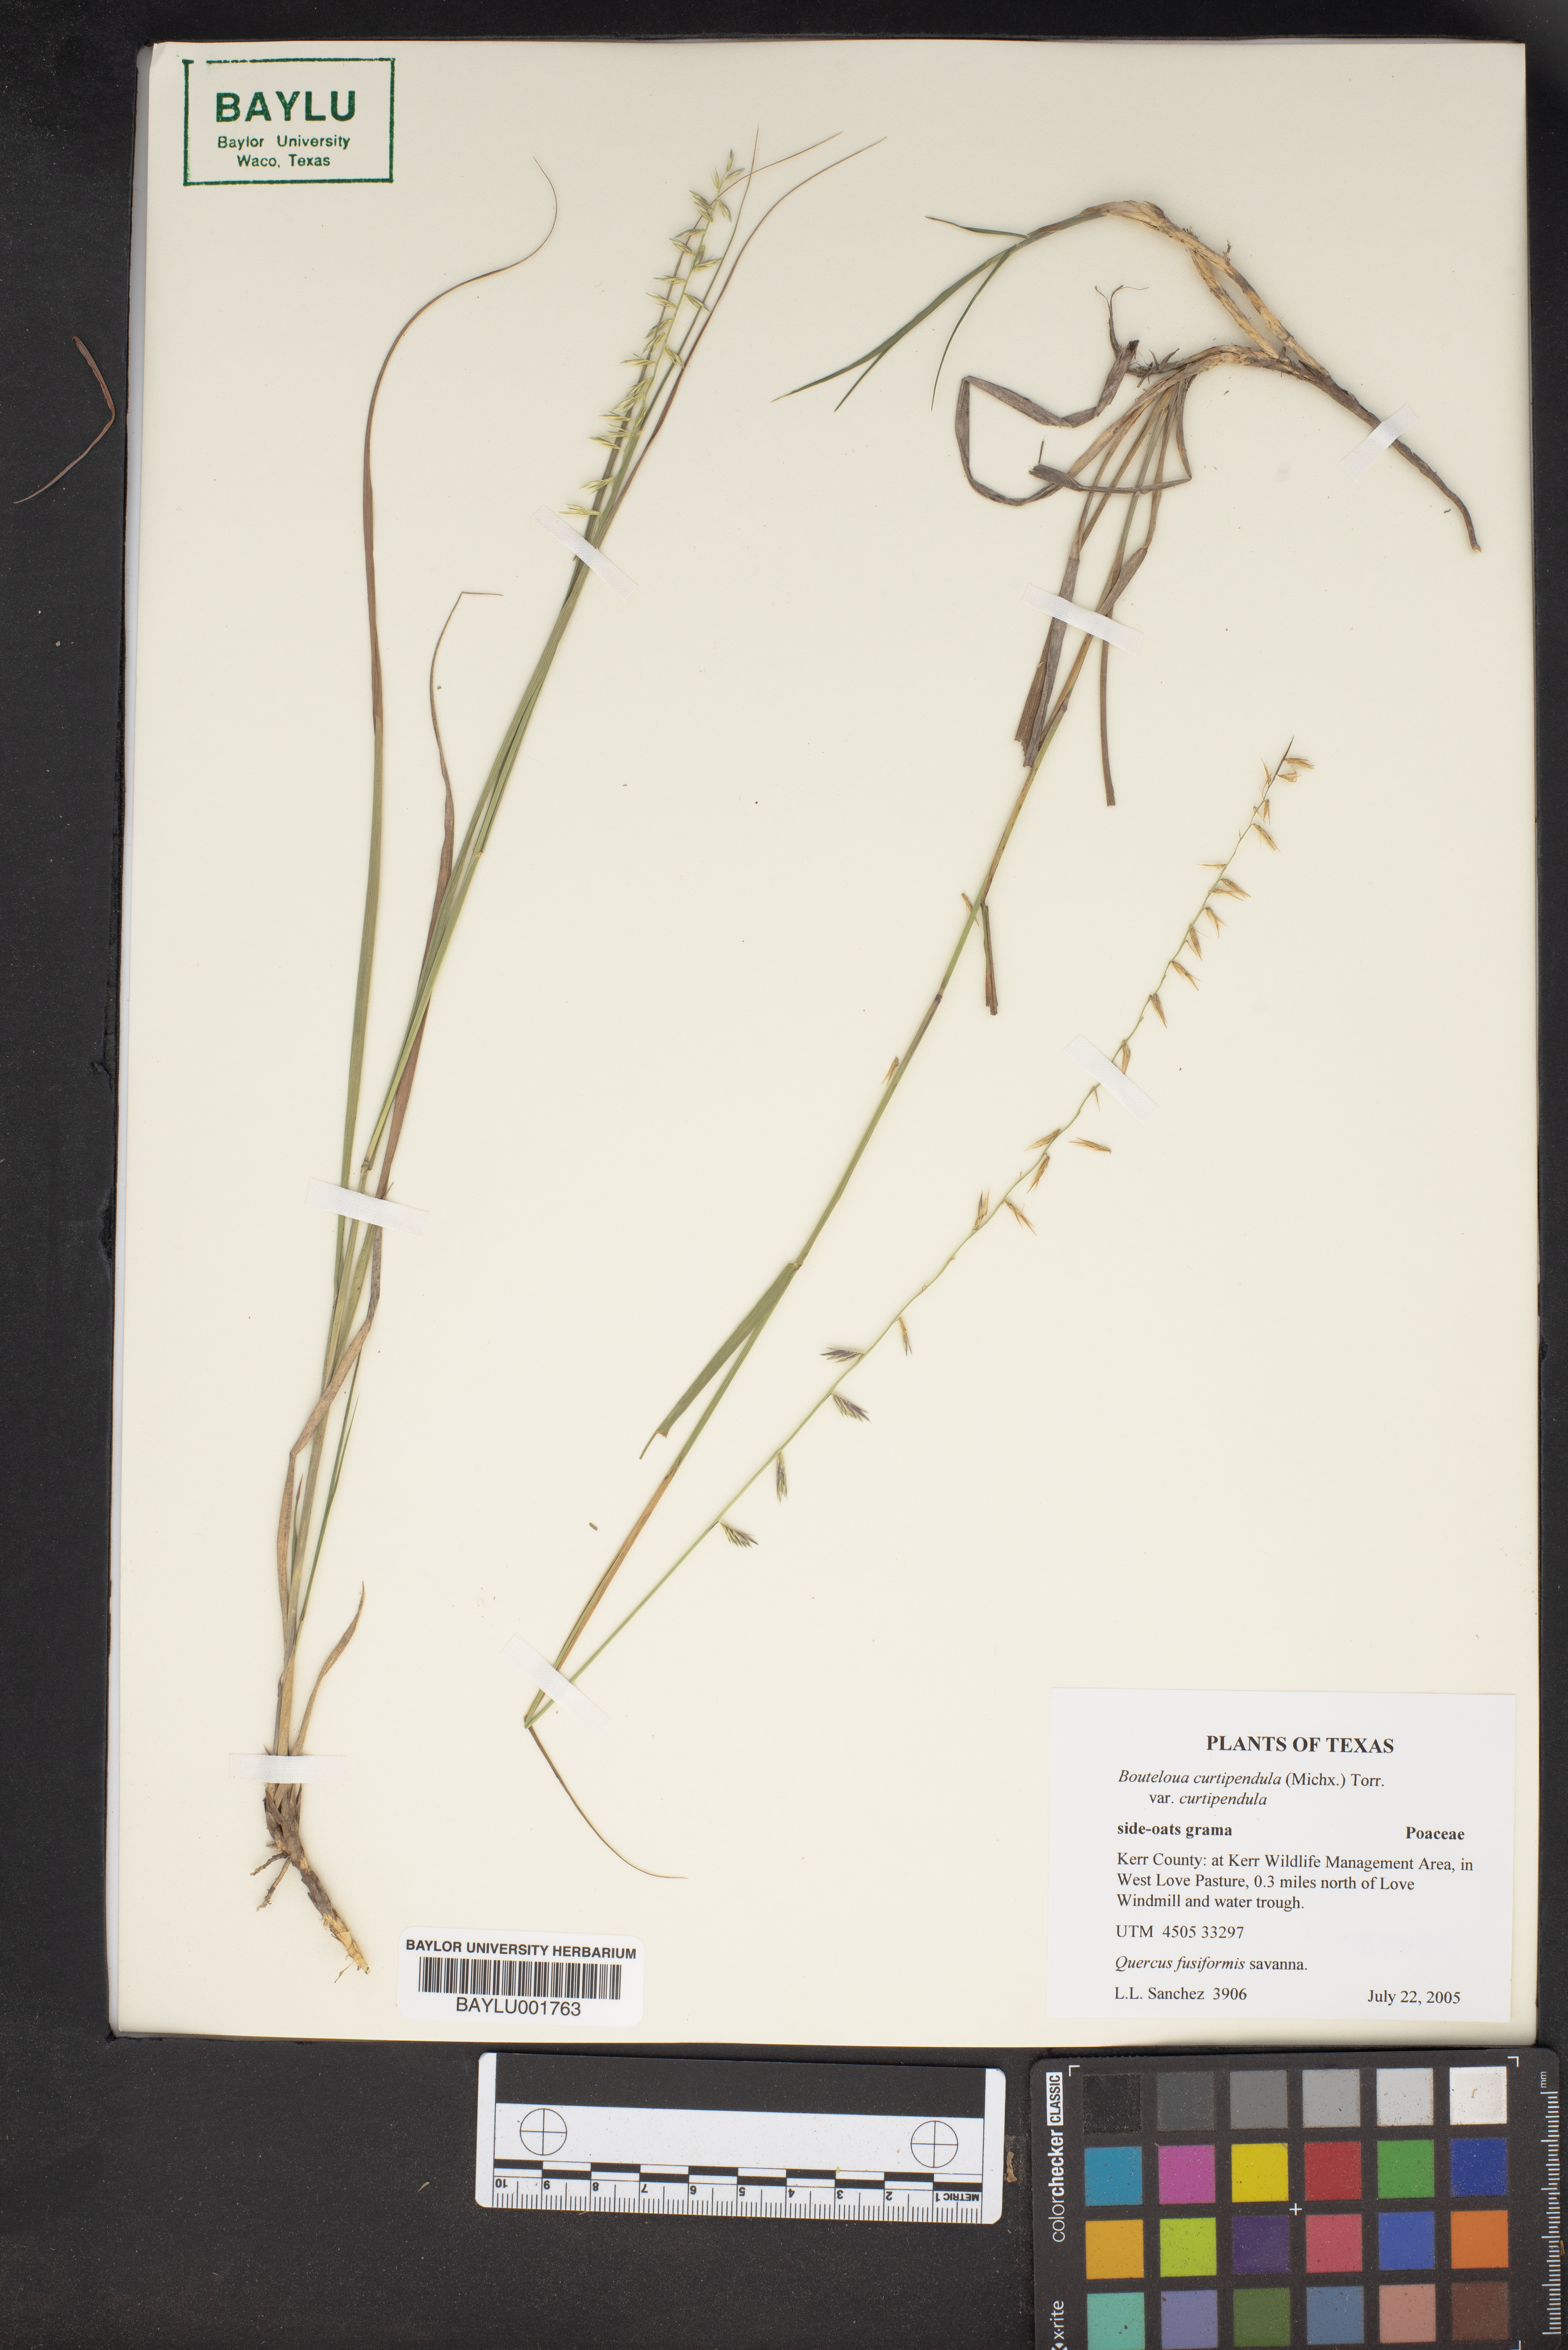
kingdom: Plantae
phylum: Tracheophyta
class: Liliopsida
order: Poales
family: Poaceae
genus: Bouteloua
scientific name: Bouteloua curtipendula
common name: Side-oats grama
